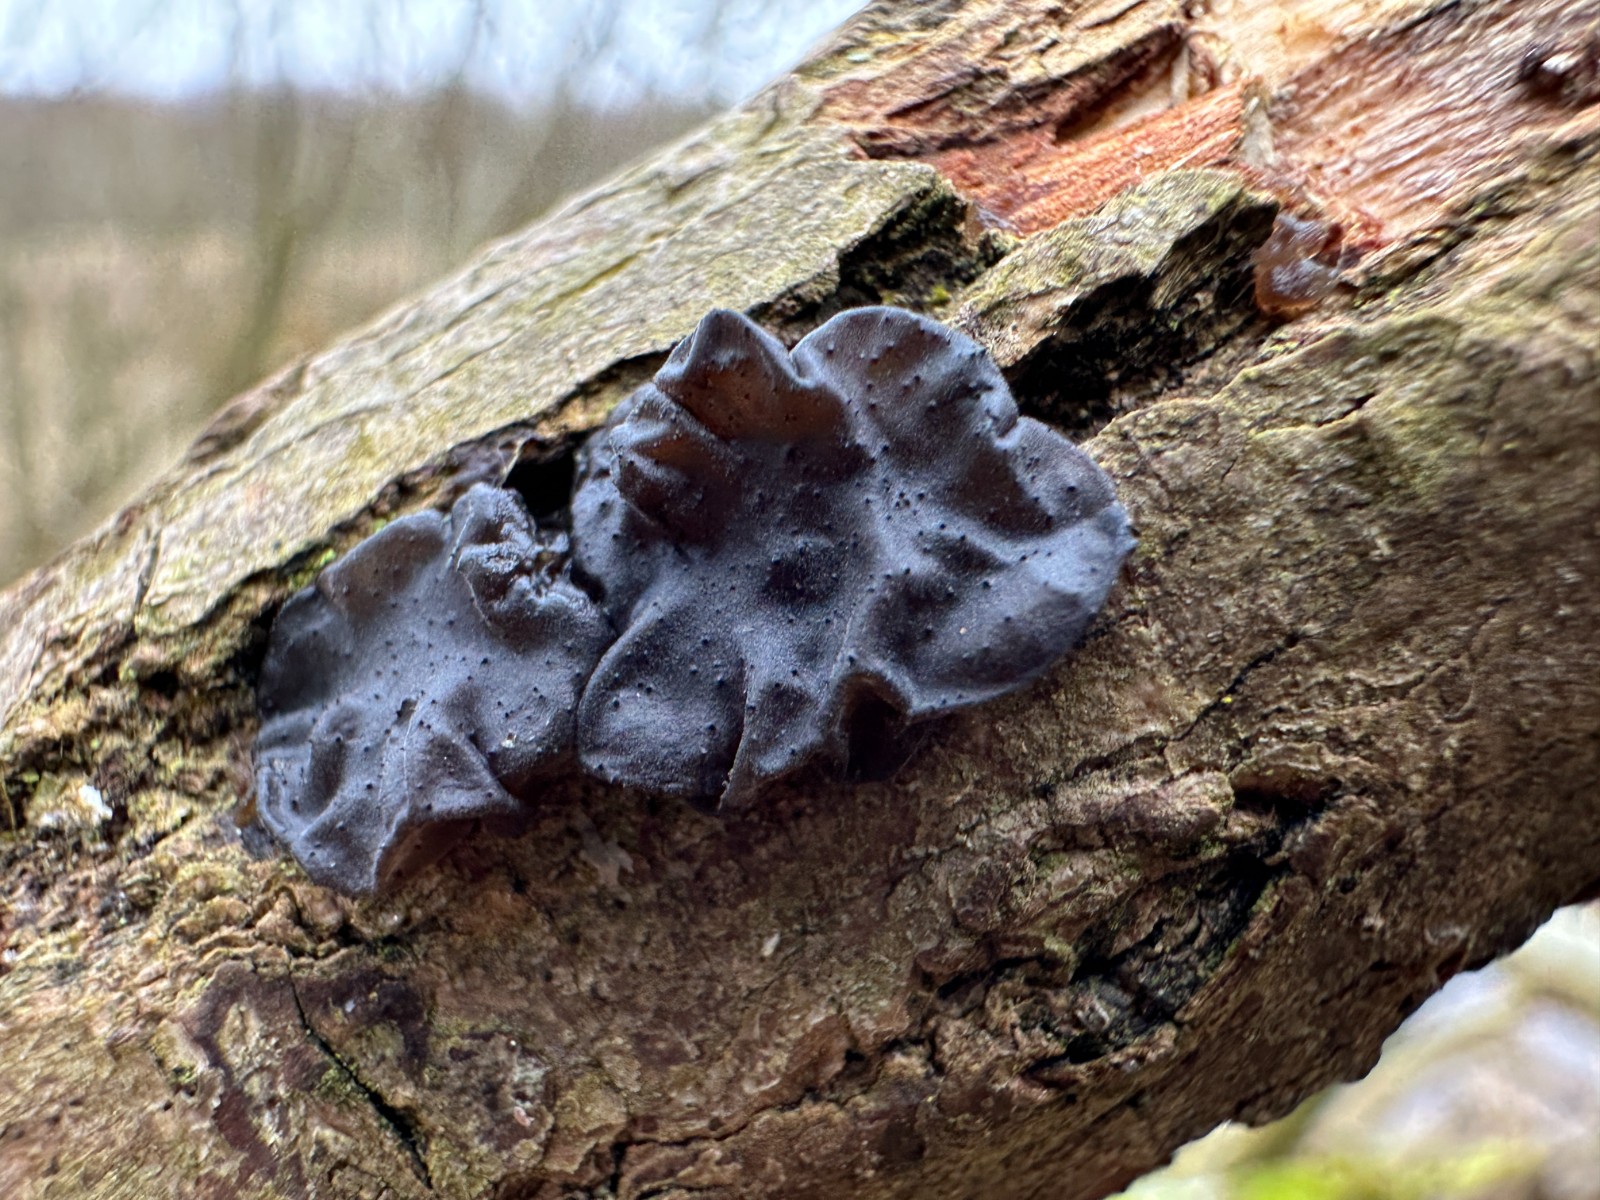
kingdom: Fungi
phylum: Basidiomycota
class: Agaricomycetes
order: Auriculariales
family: Auriculariaceae
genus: Exidia
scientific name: Exidia nigricans
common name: almindelig bævretop
